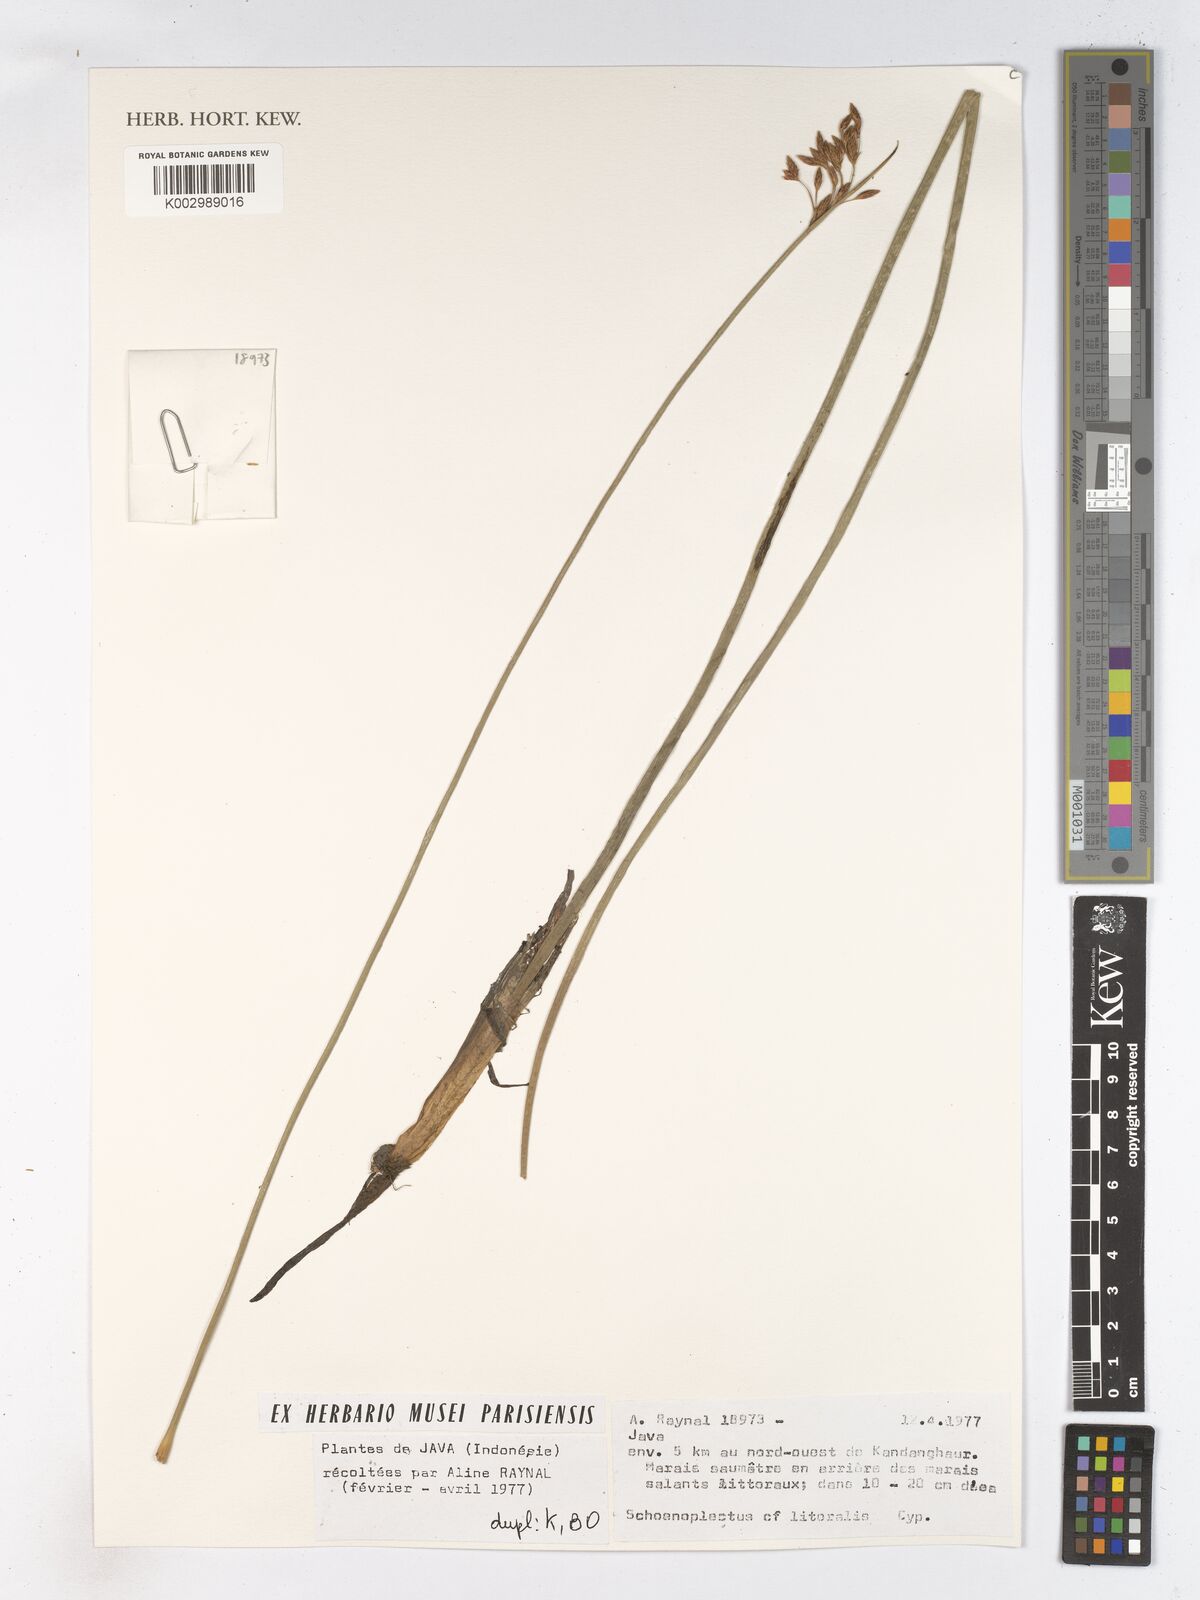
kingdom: Plantae
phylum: Tracheophyta
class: Liliopsida
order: Poales
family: Cyperaceae
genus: Schoenoplectus
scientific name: Schoenoplectus litoralis
